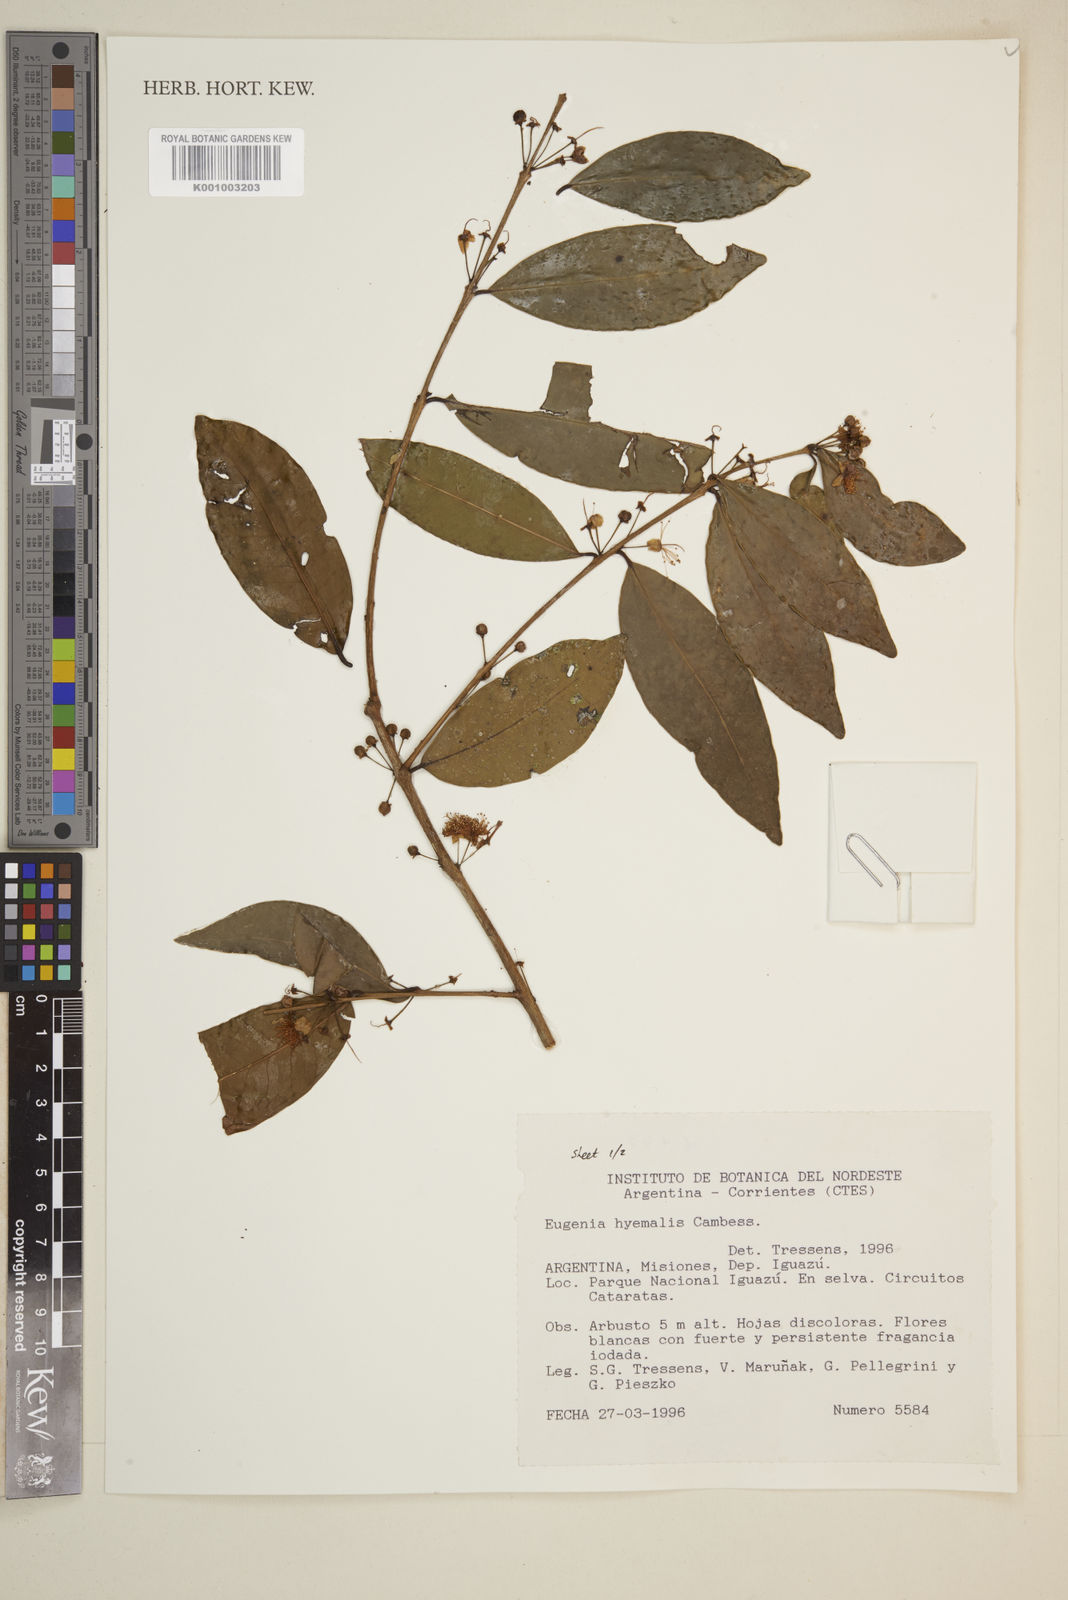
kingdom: Plantae
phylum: Tracheophyta
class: Magnoliopsida
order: Myrtales
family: Myrtaceae
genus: Eugenia
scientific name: Eugenia
